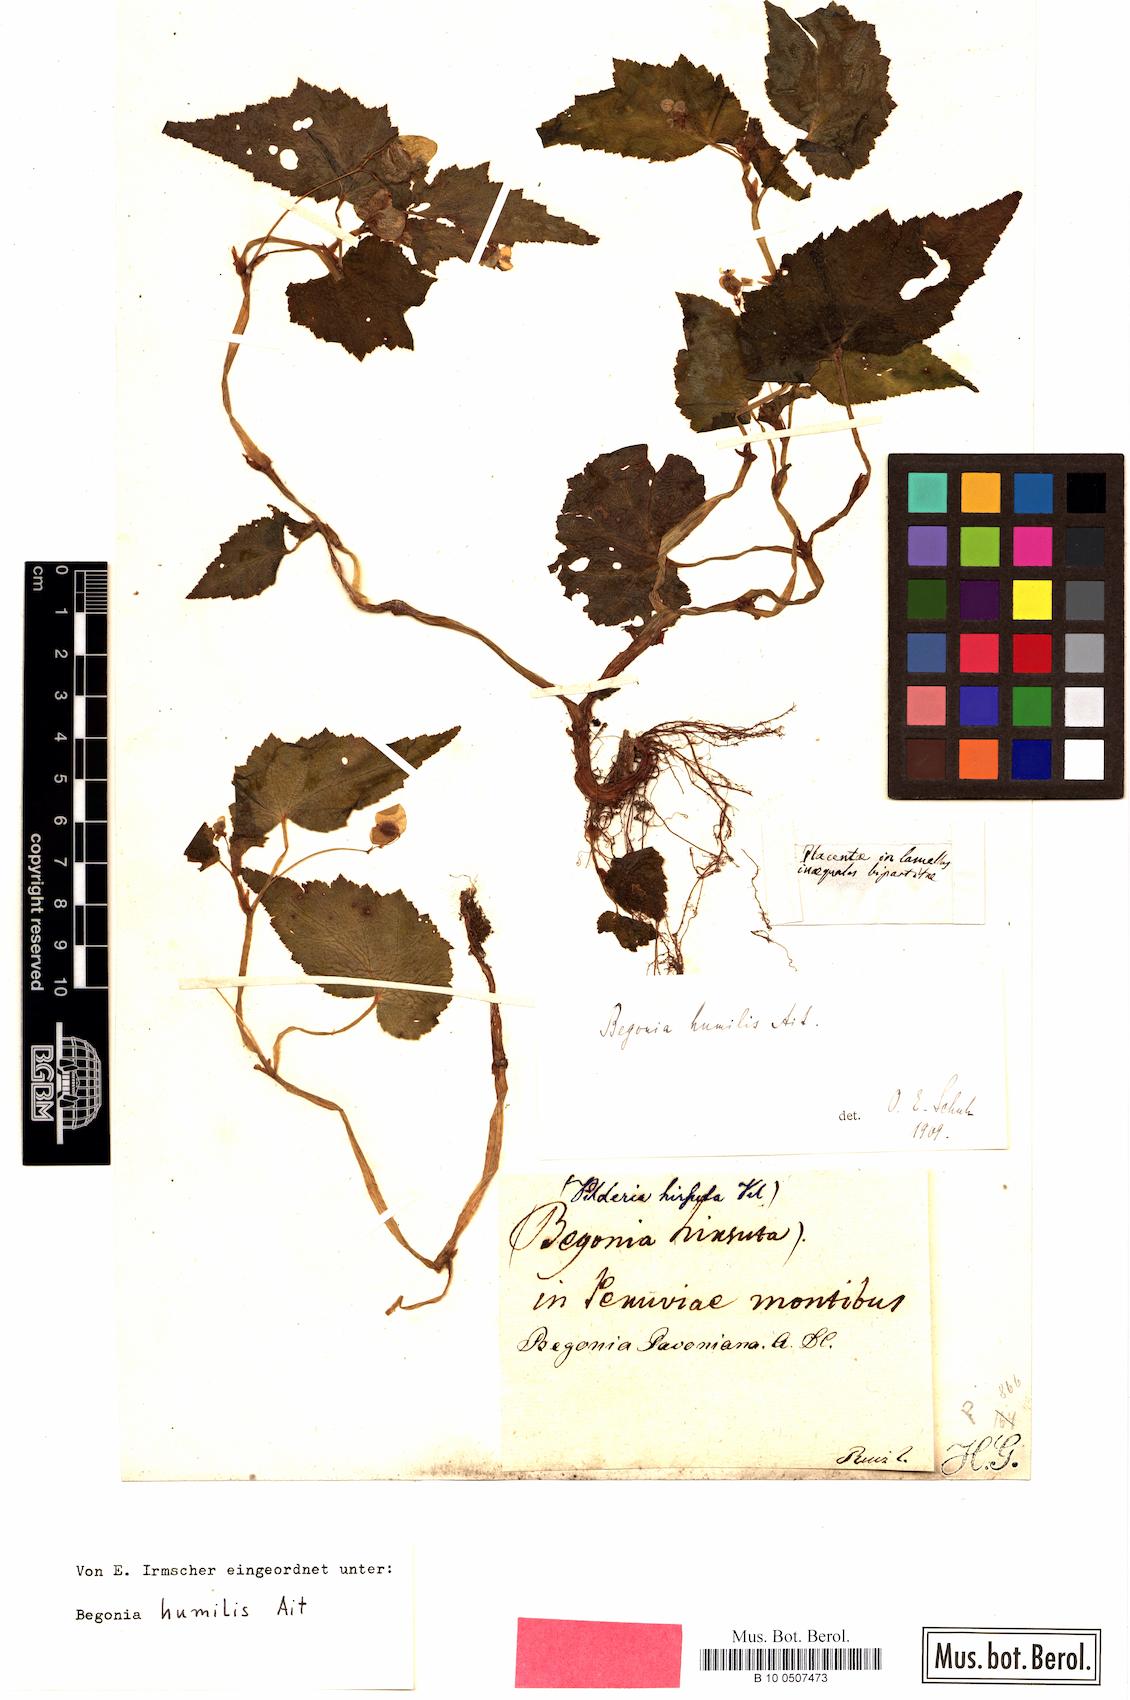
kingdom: Plantae
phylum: Tracheophyta
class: Magnoliopsida
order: Cucurbitales
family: Begoniaceae
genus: Begonia
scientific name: Begonia humilis
